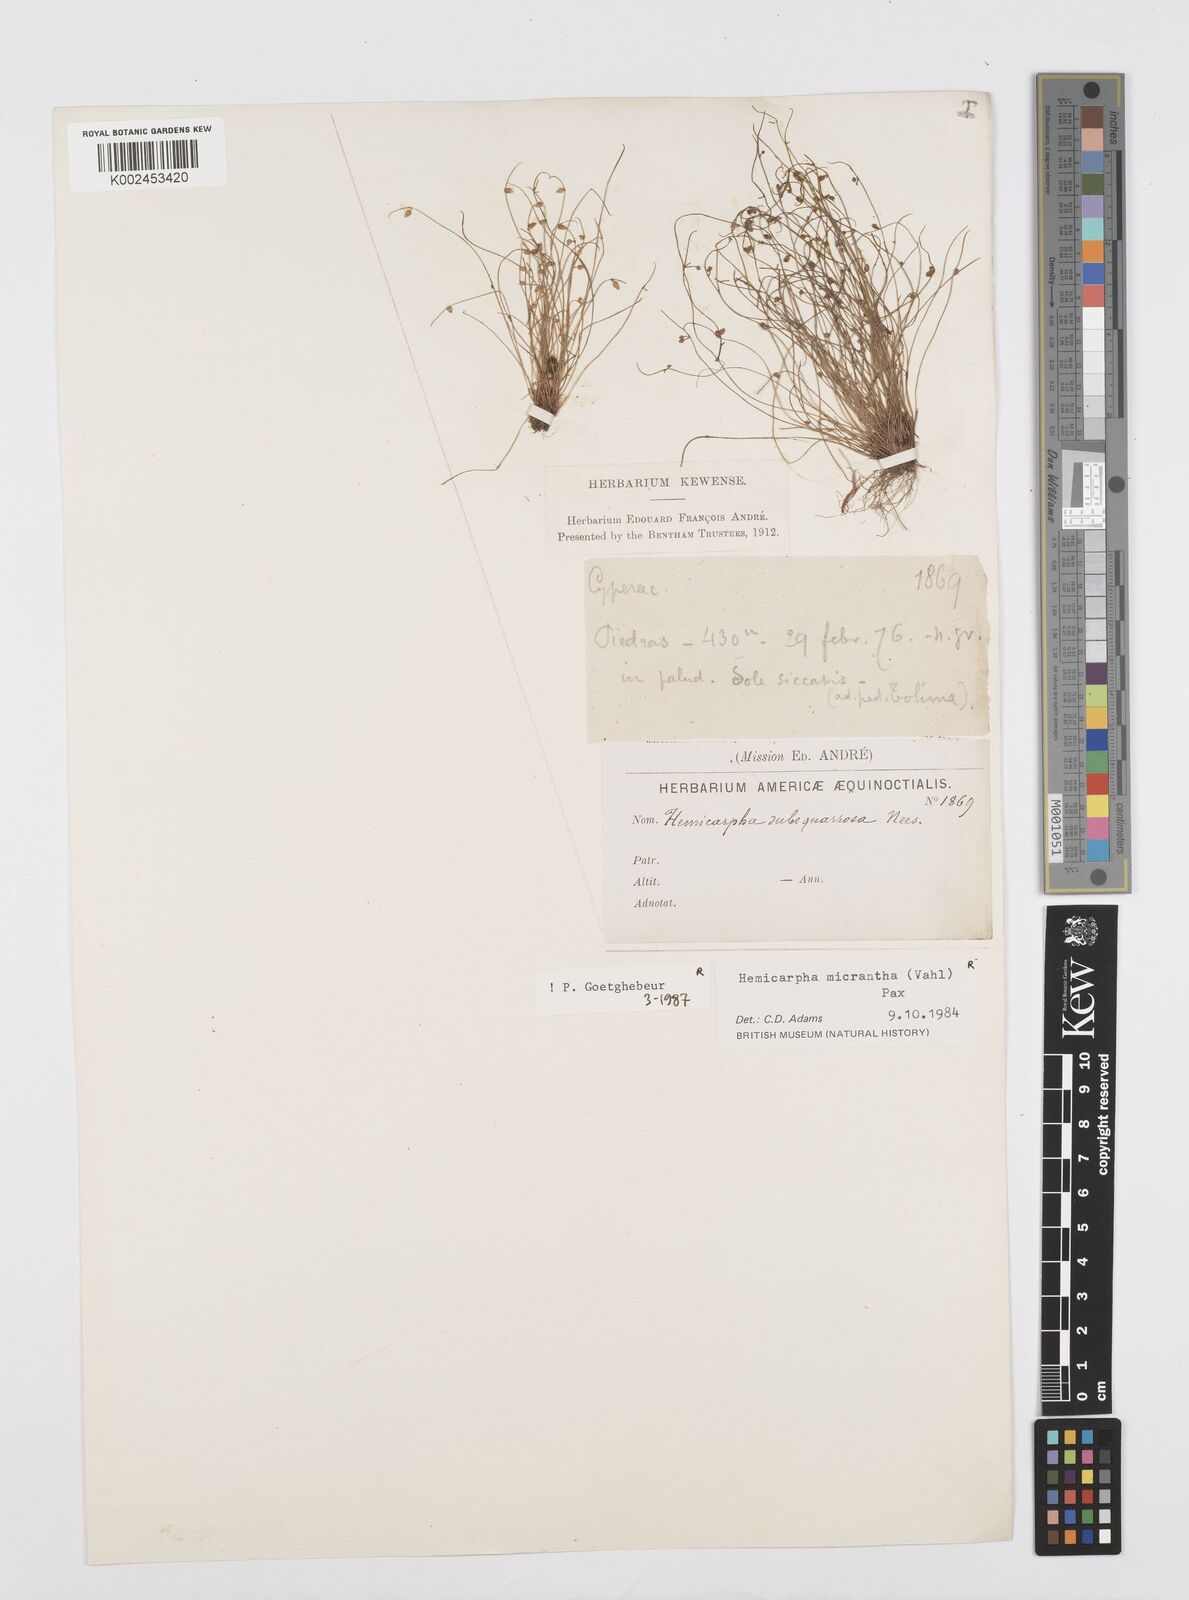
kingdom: Plantae
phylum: Tracheophyta
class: Liliopsida
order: Poales
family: Cyperaceae
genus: Cyperus
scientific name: Cyperus dentatus
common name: Dentate umbrella sedge
